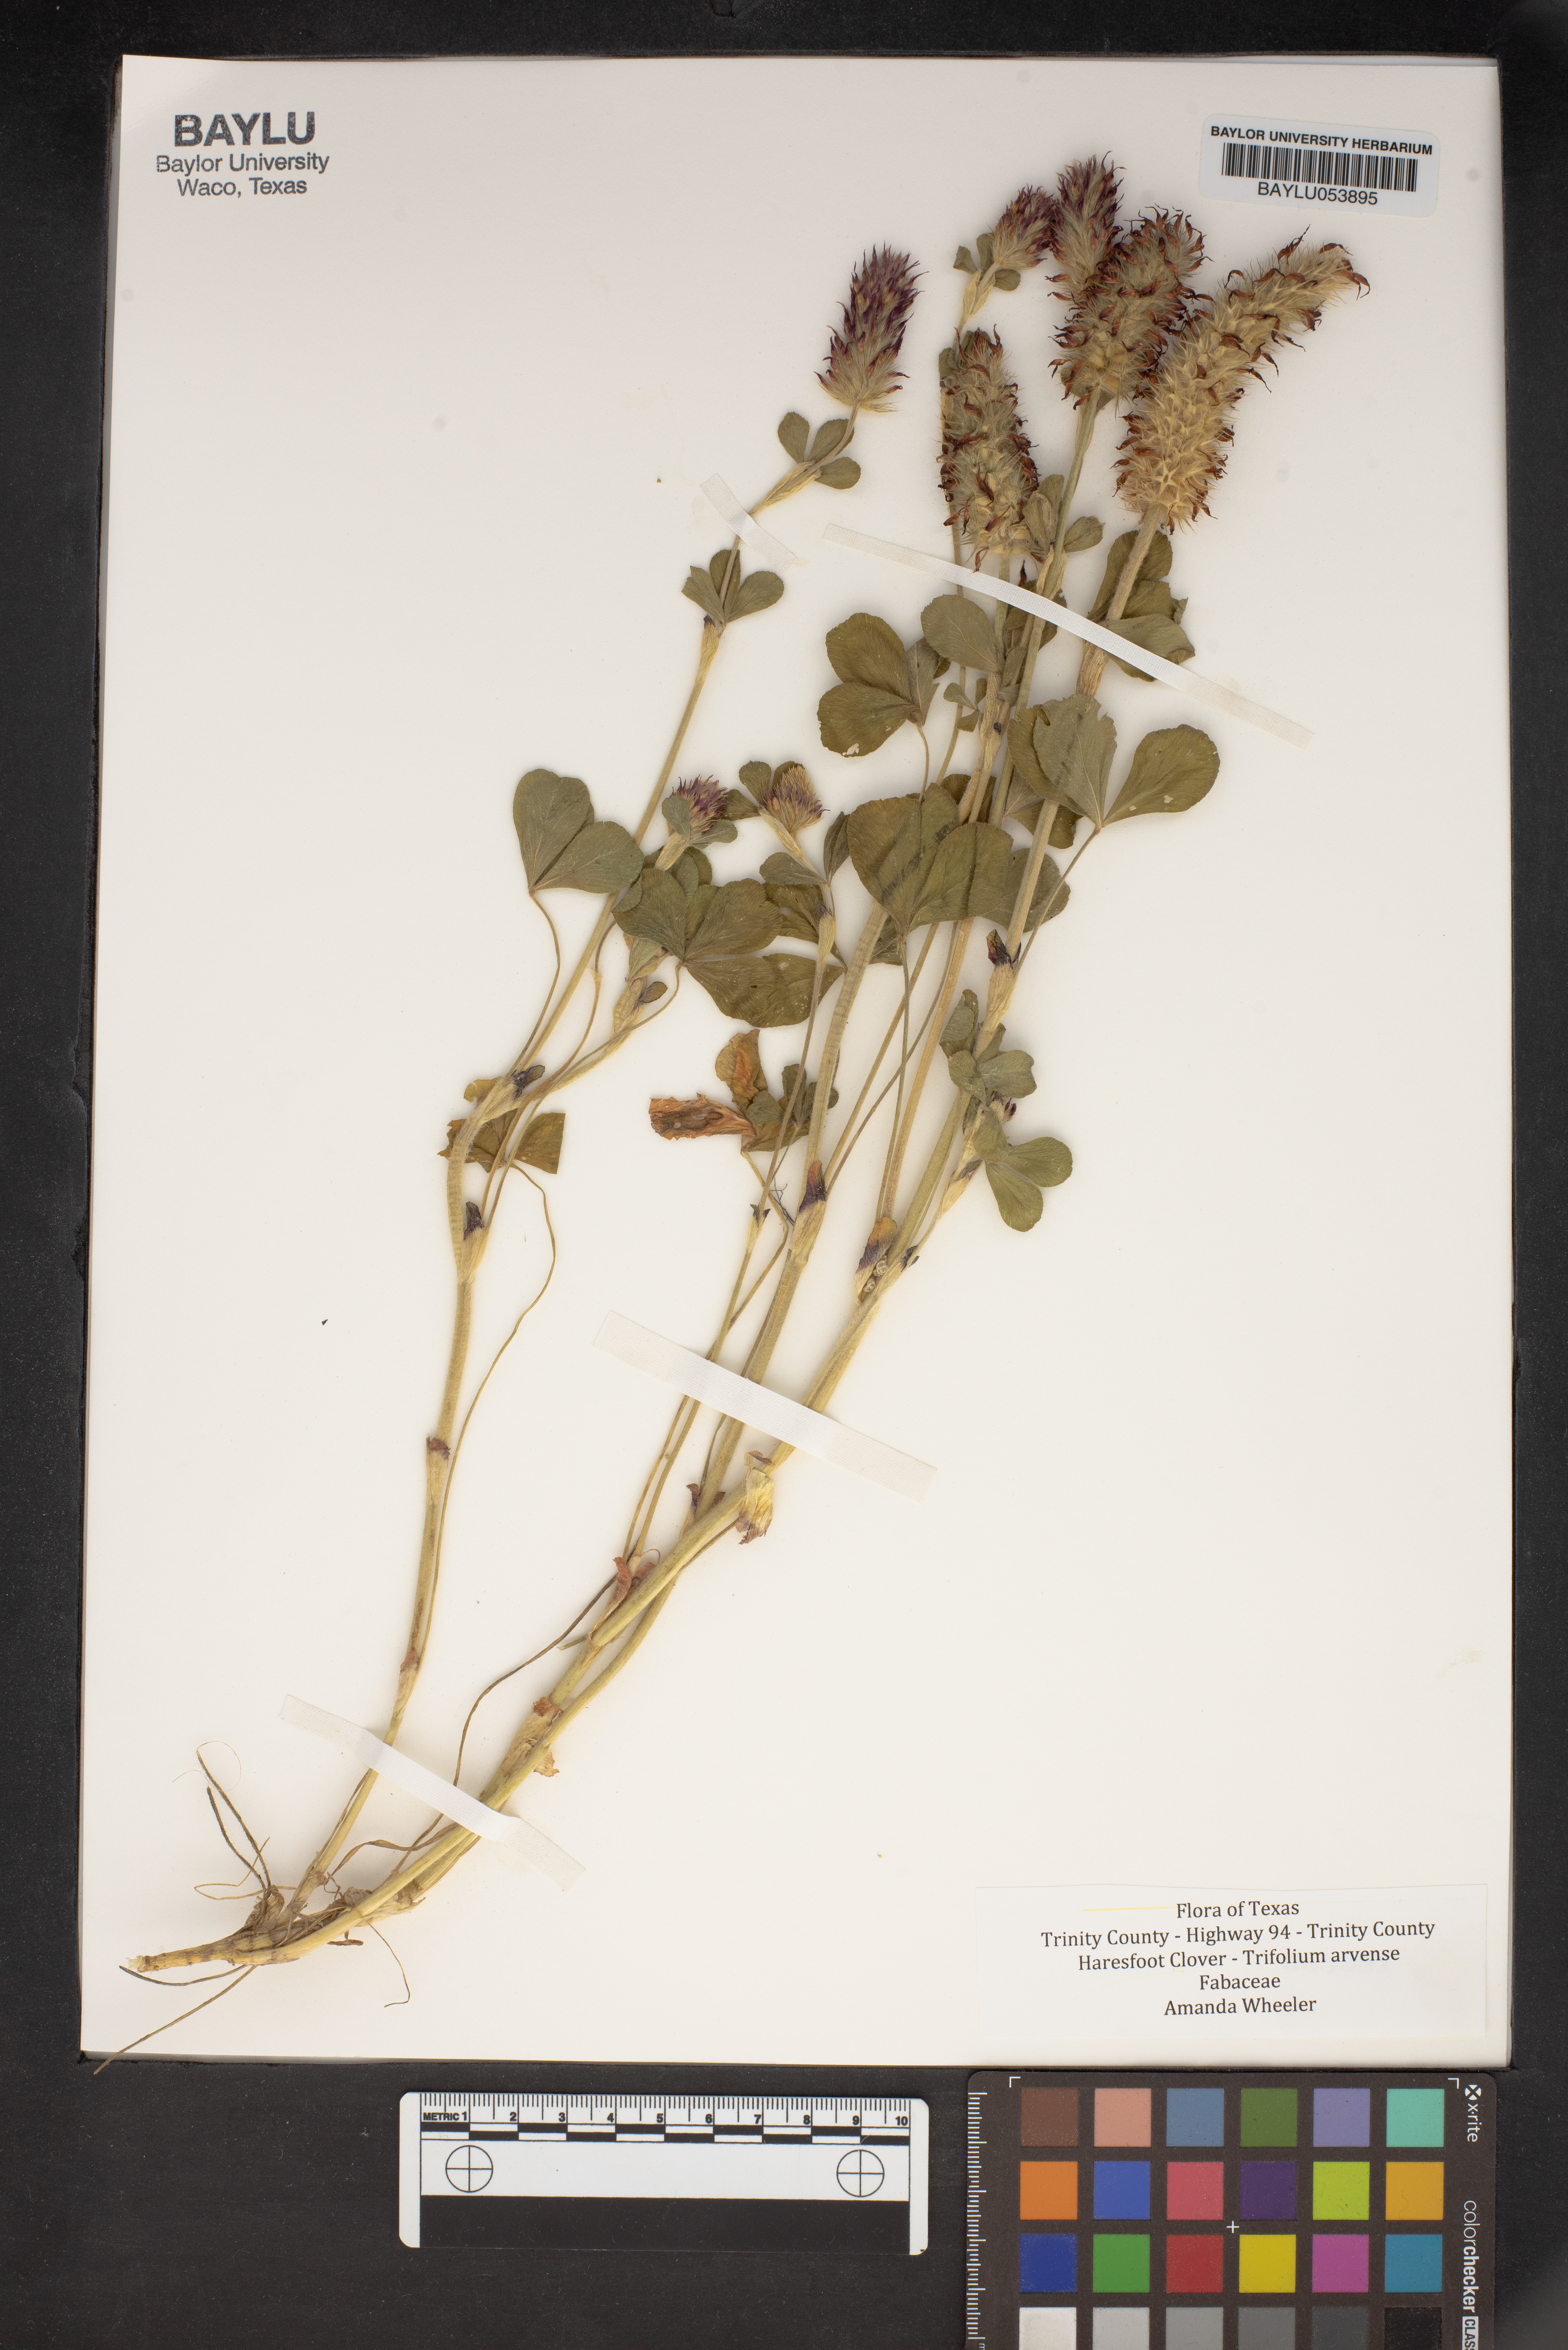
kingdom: Plantae
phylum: Tracheophyta
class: Magnoliopsida
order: Fabales
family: Fabaceae
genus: Trifolium
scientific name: Trifolium arvense
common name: Hare's-foot clover
